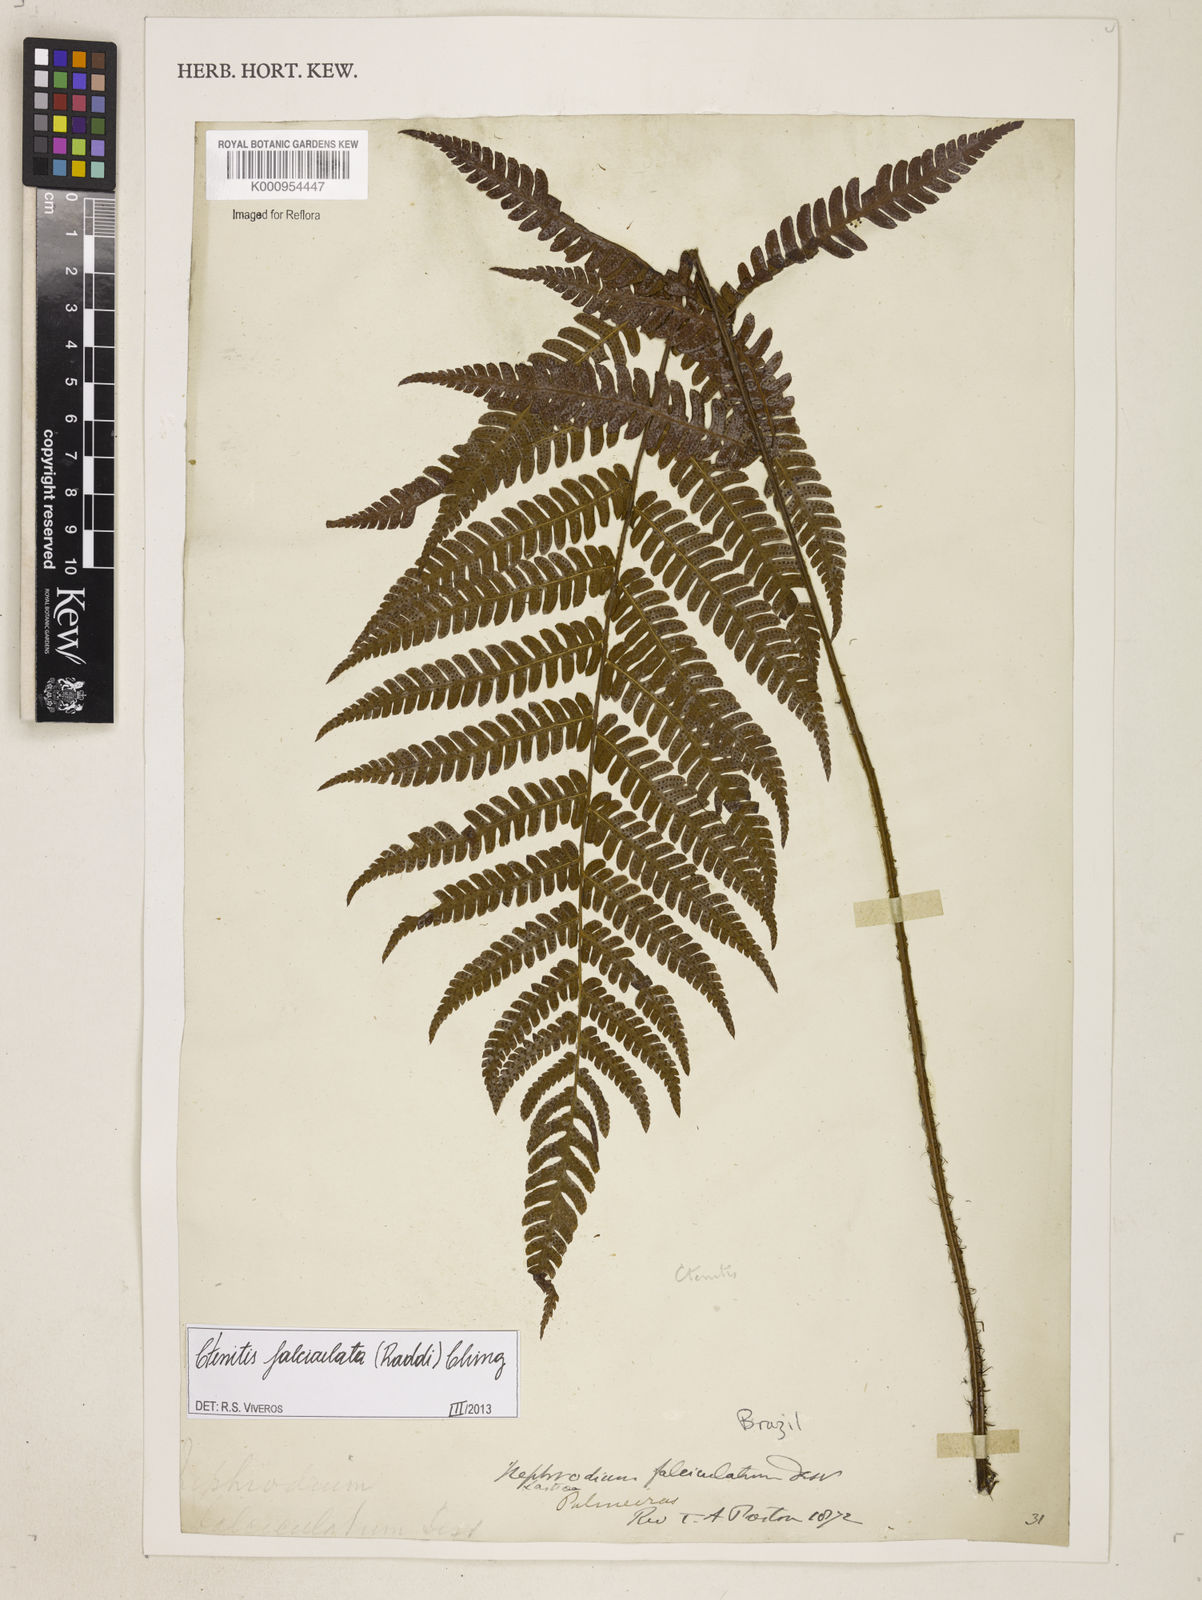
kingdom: Plantae
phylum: Tracheophyta
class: Polypodiopsida
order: Polypodiales
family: Dryopteridaceae
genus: Ctenitis
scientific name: Ctenitis falciculata
